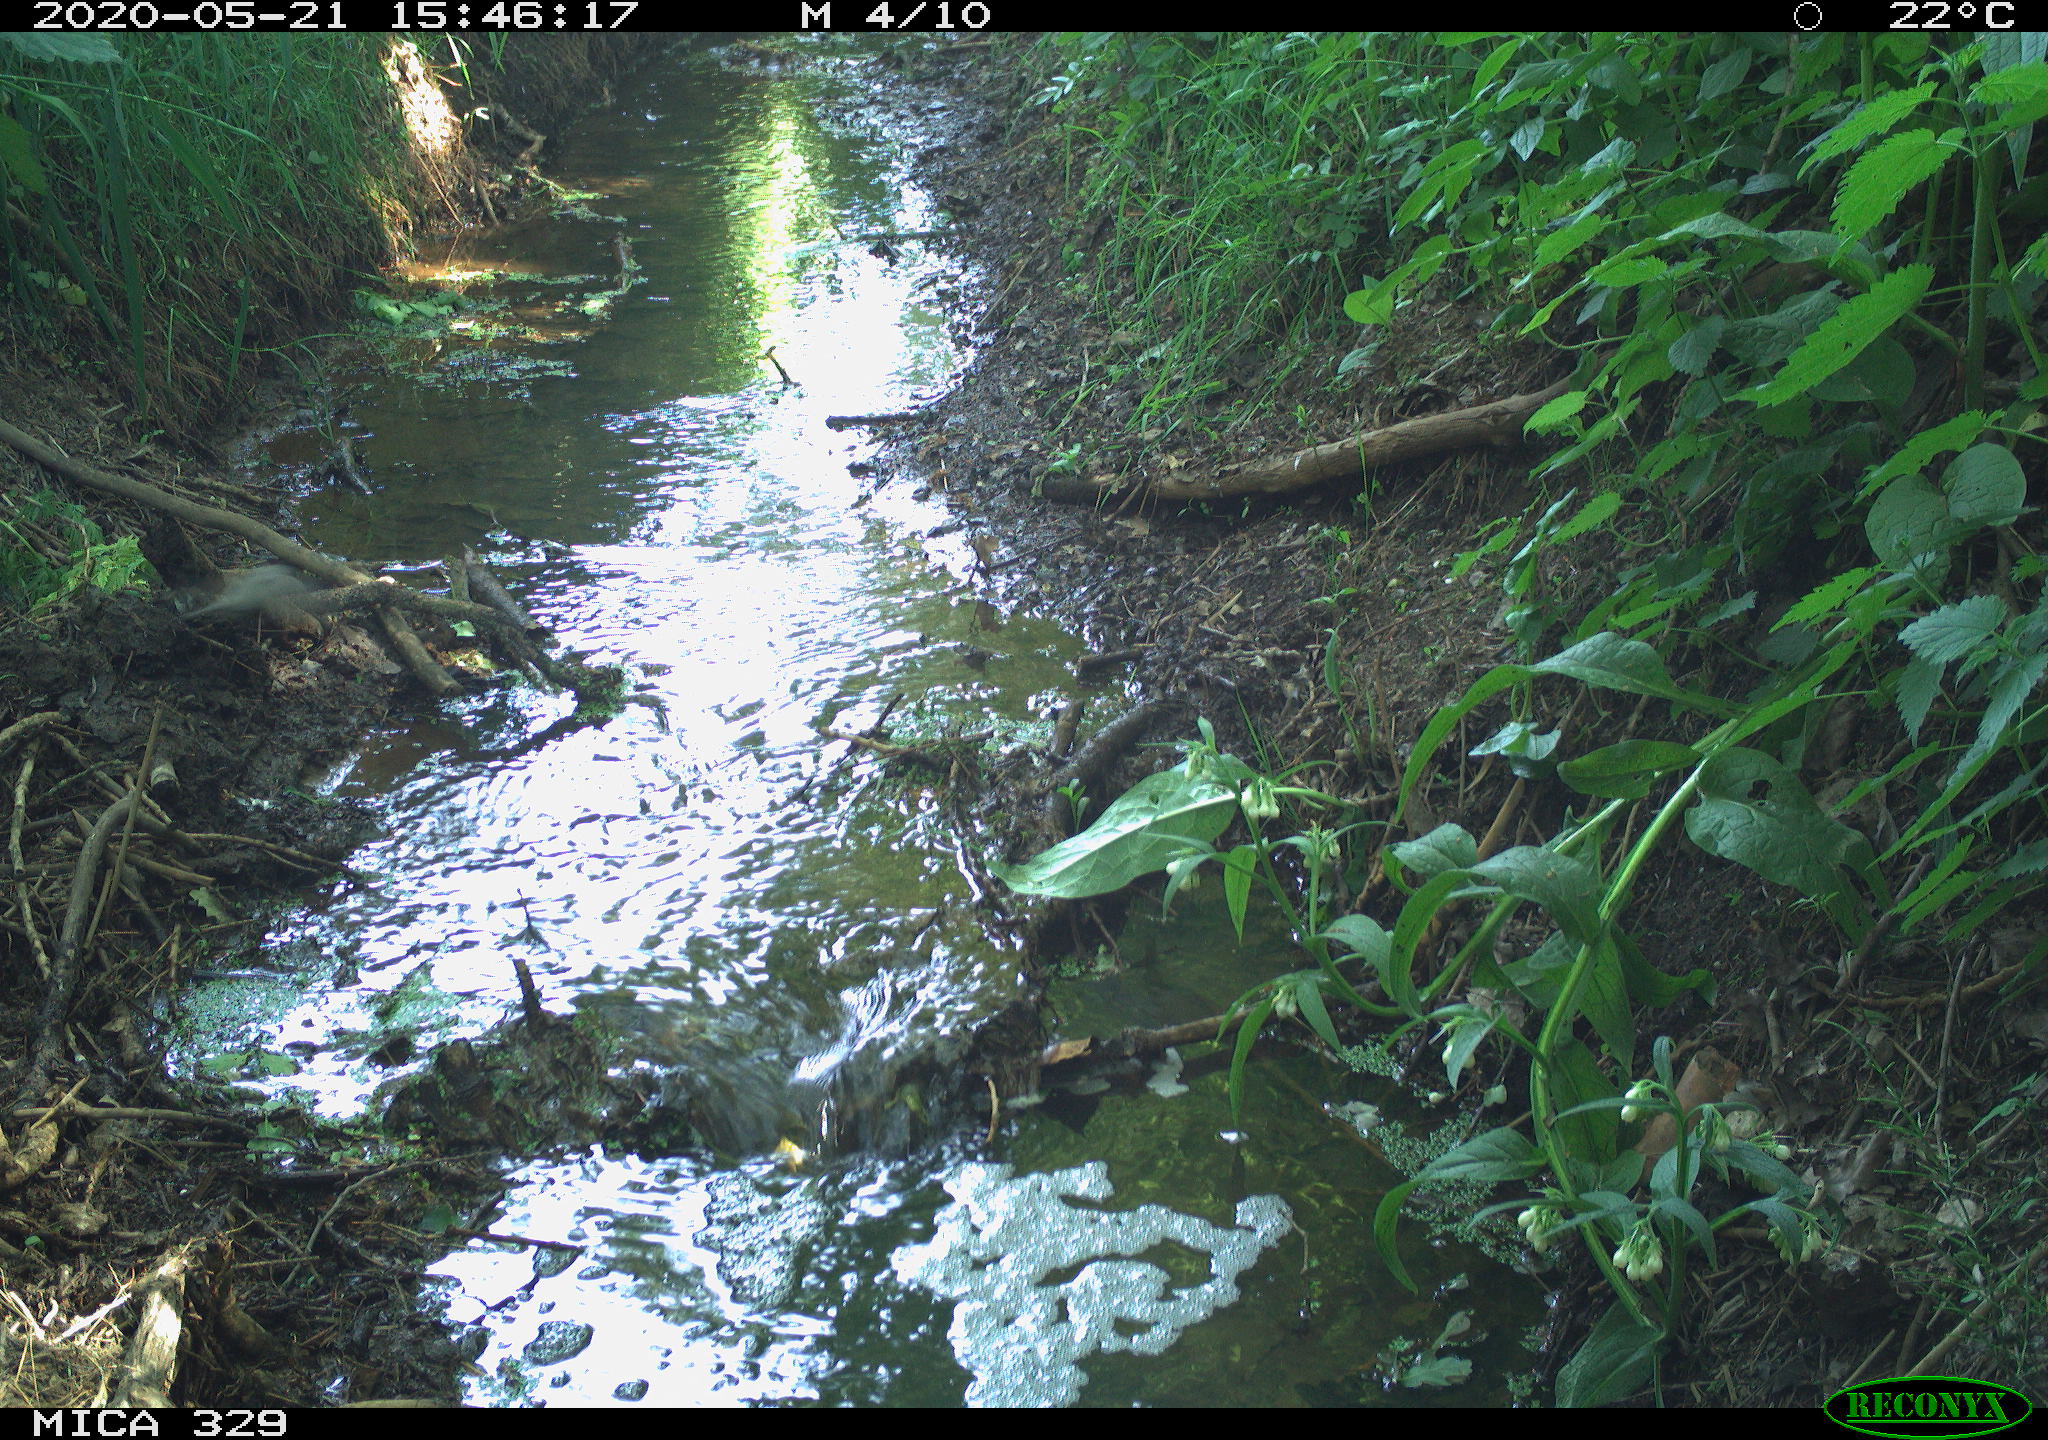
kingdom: Animalia
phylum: Chordata
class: Aves
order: Passeriformes
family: Sylviidae
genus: Sylvia
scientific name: Sylvia atricapilla
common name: Eurasian blackcap
